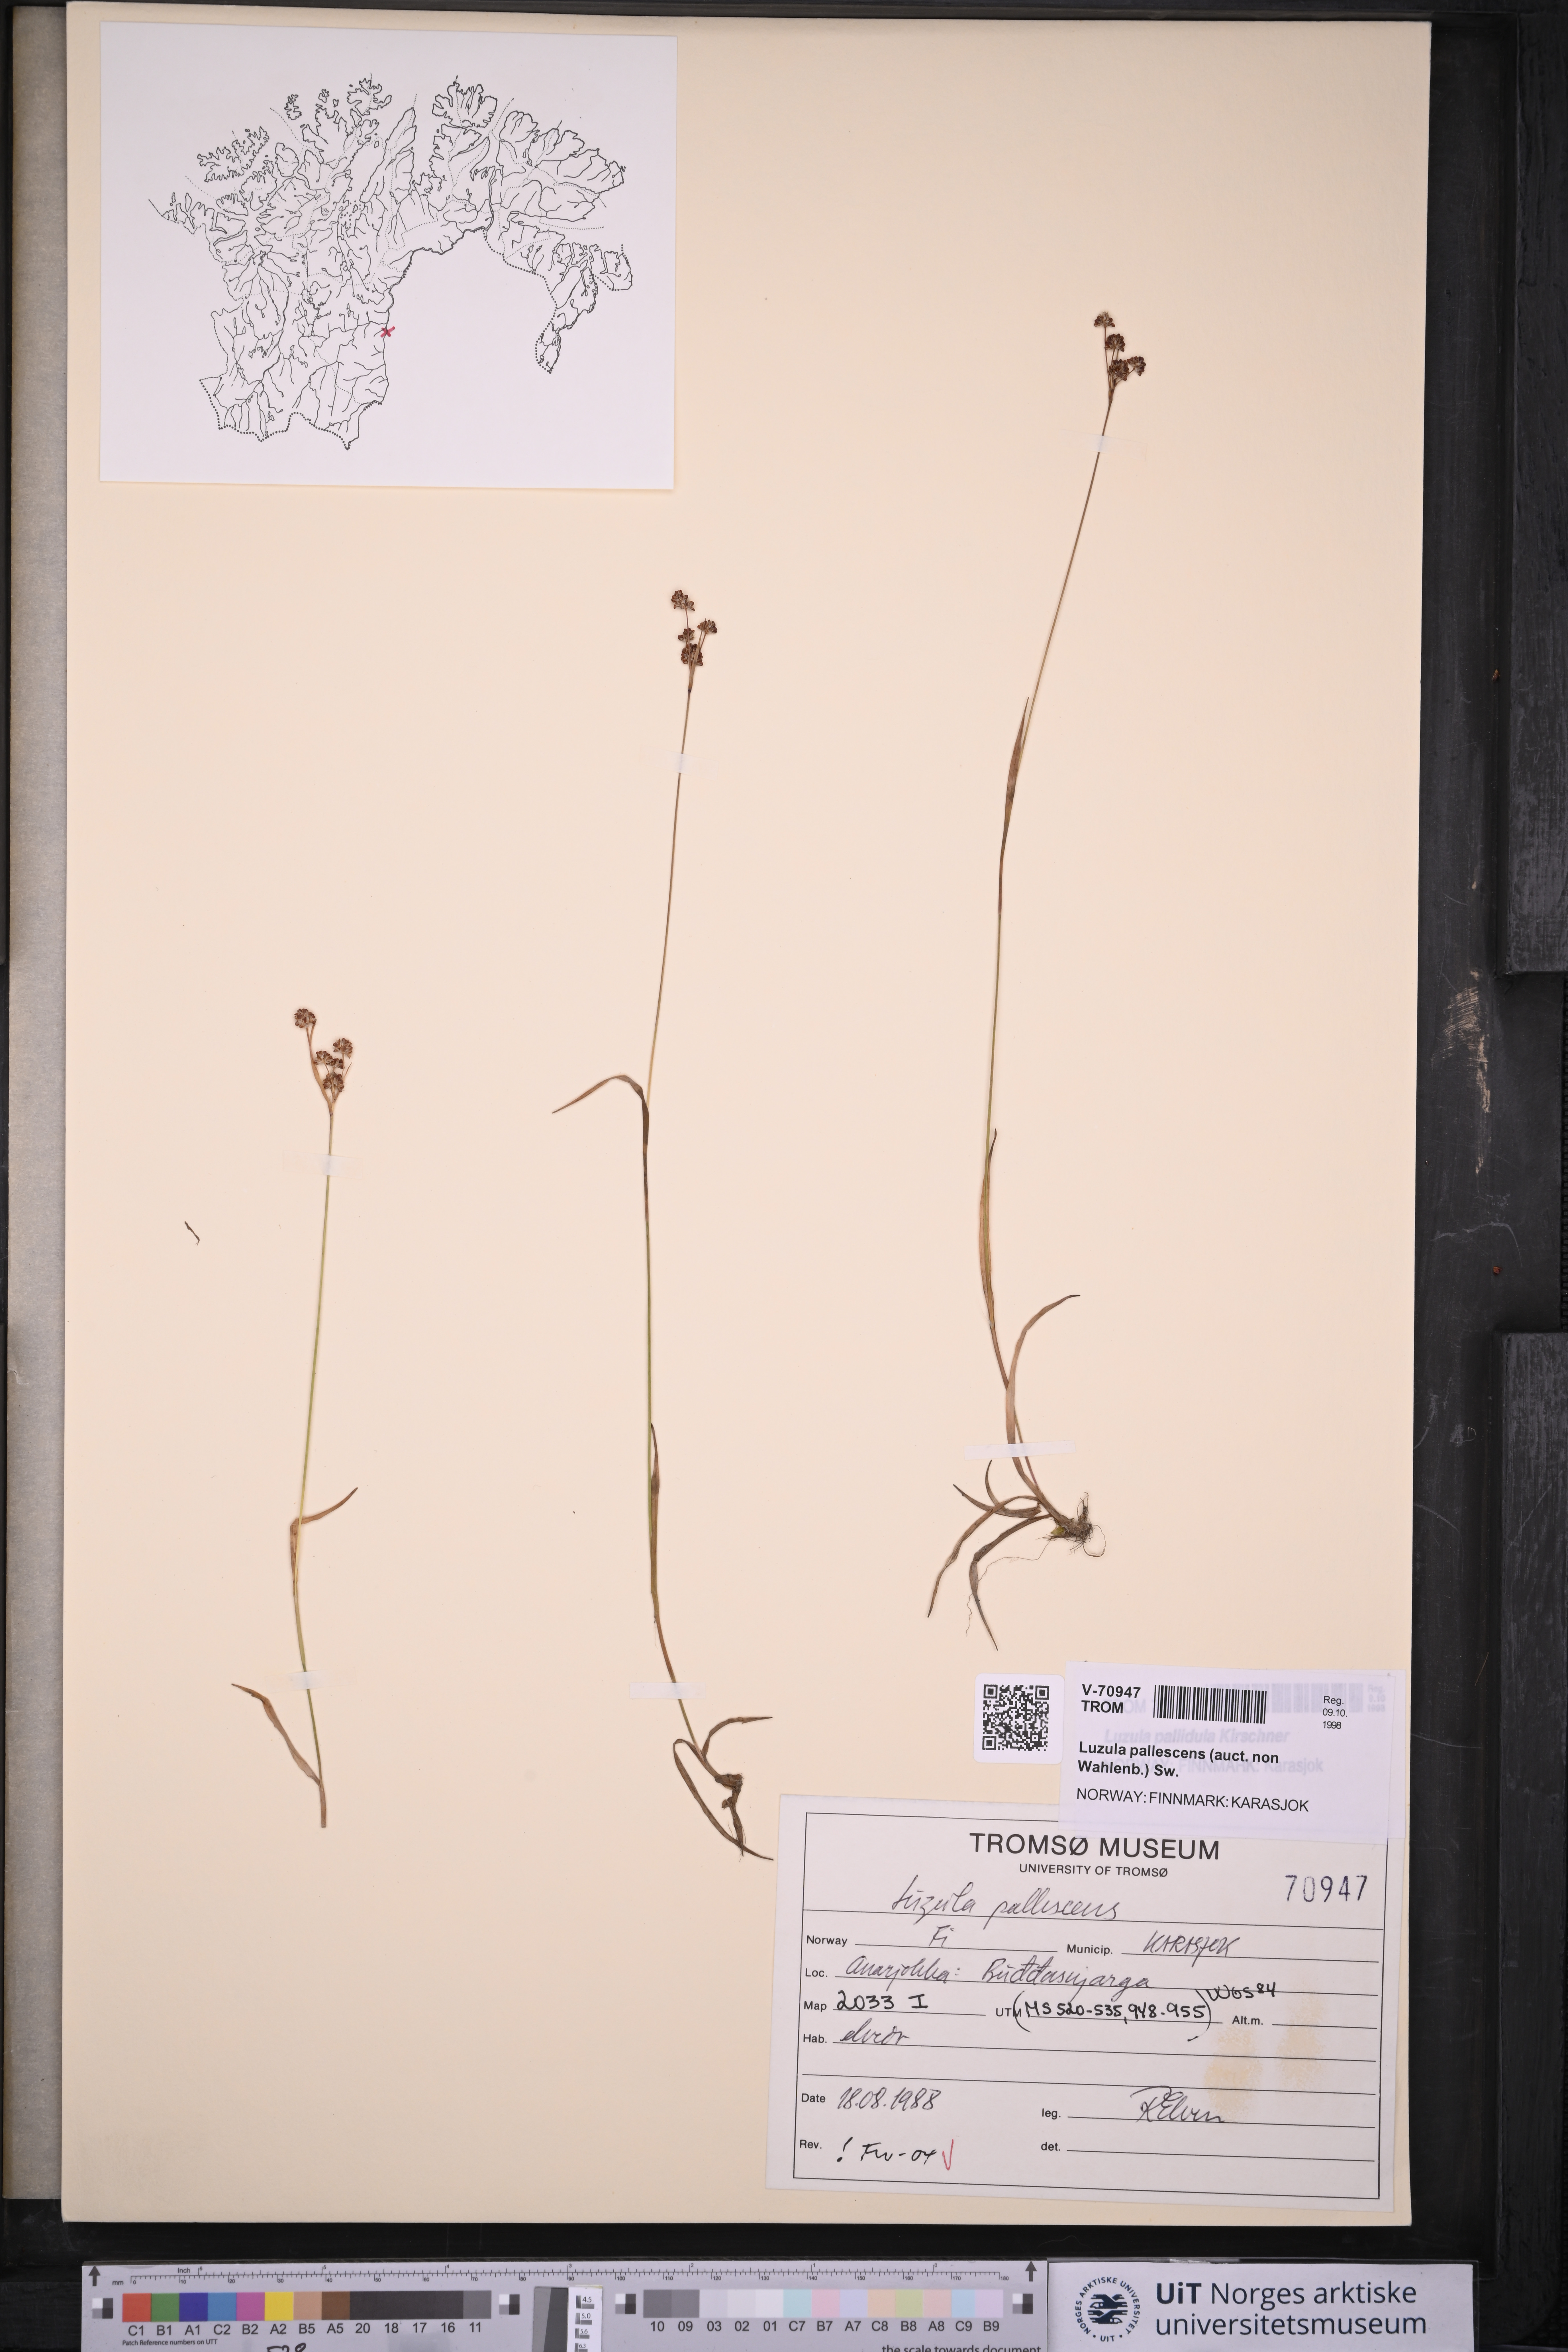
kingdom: Plantae
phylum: Tracheophyta
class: Liliopsida
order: Poales
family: Juncaceae
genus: Luzula
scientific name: Luzula pallescens
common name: Fen wood-rush
